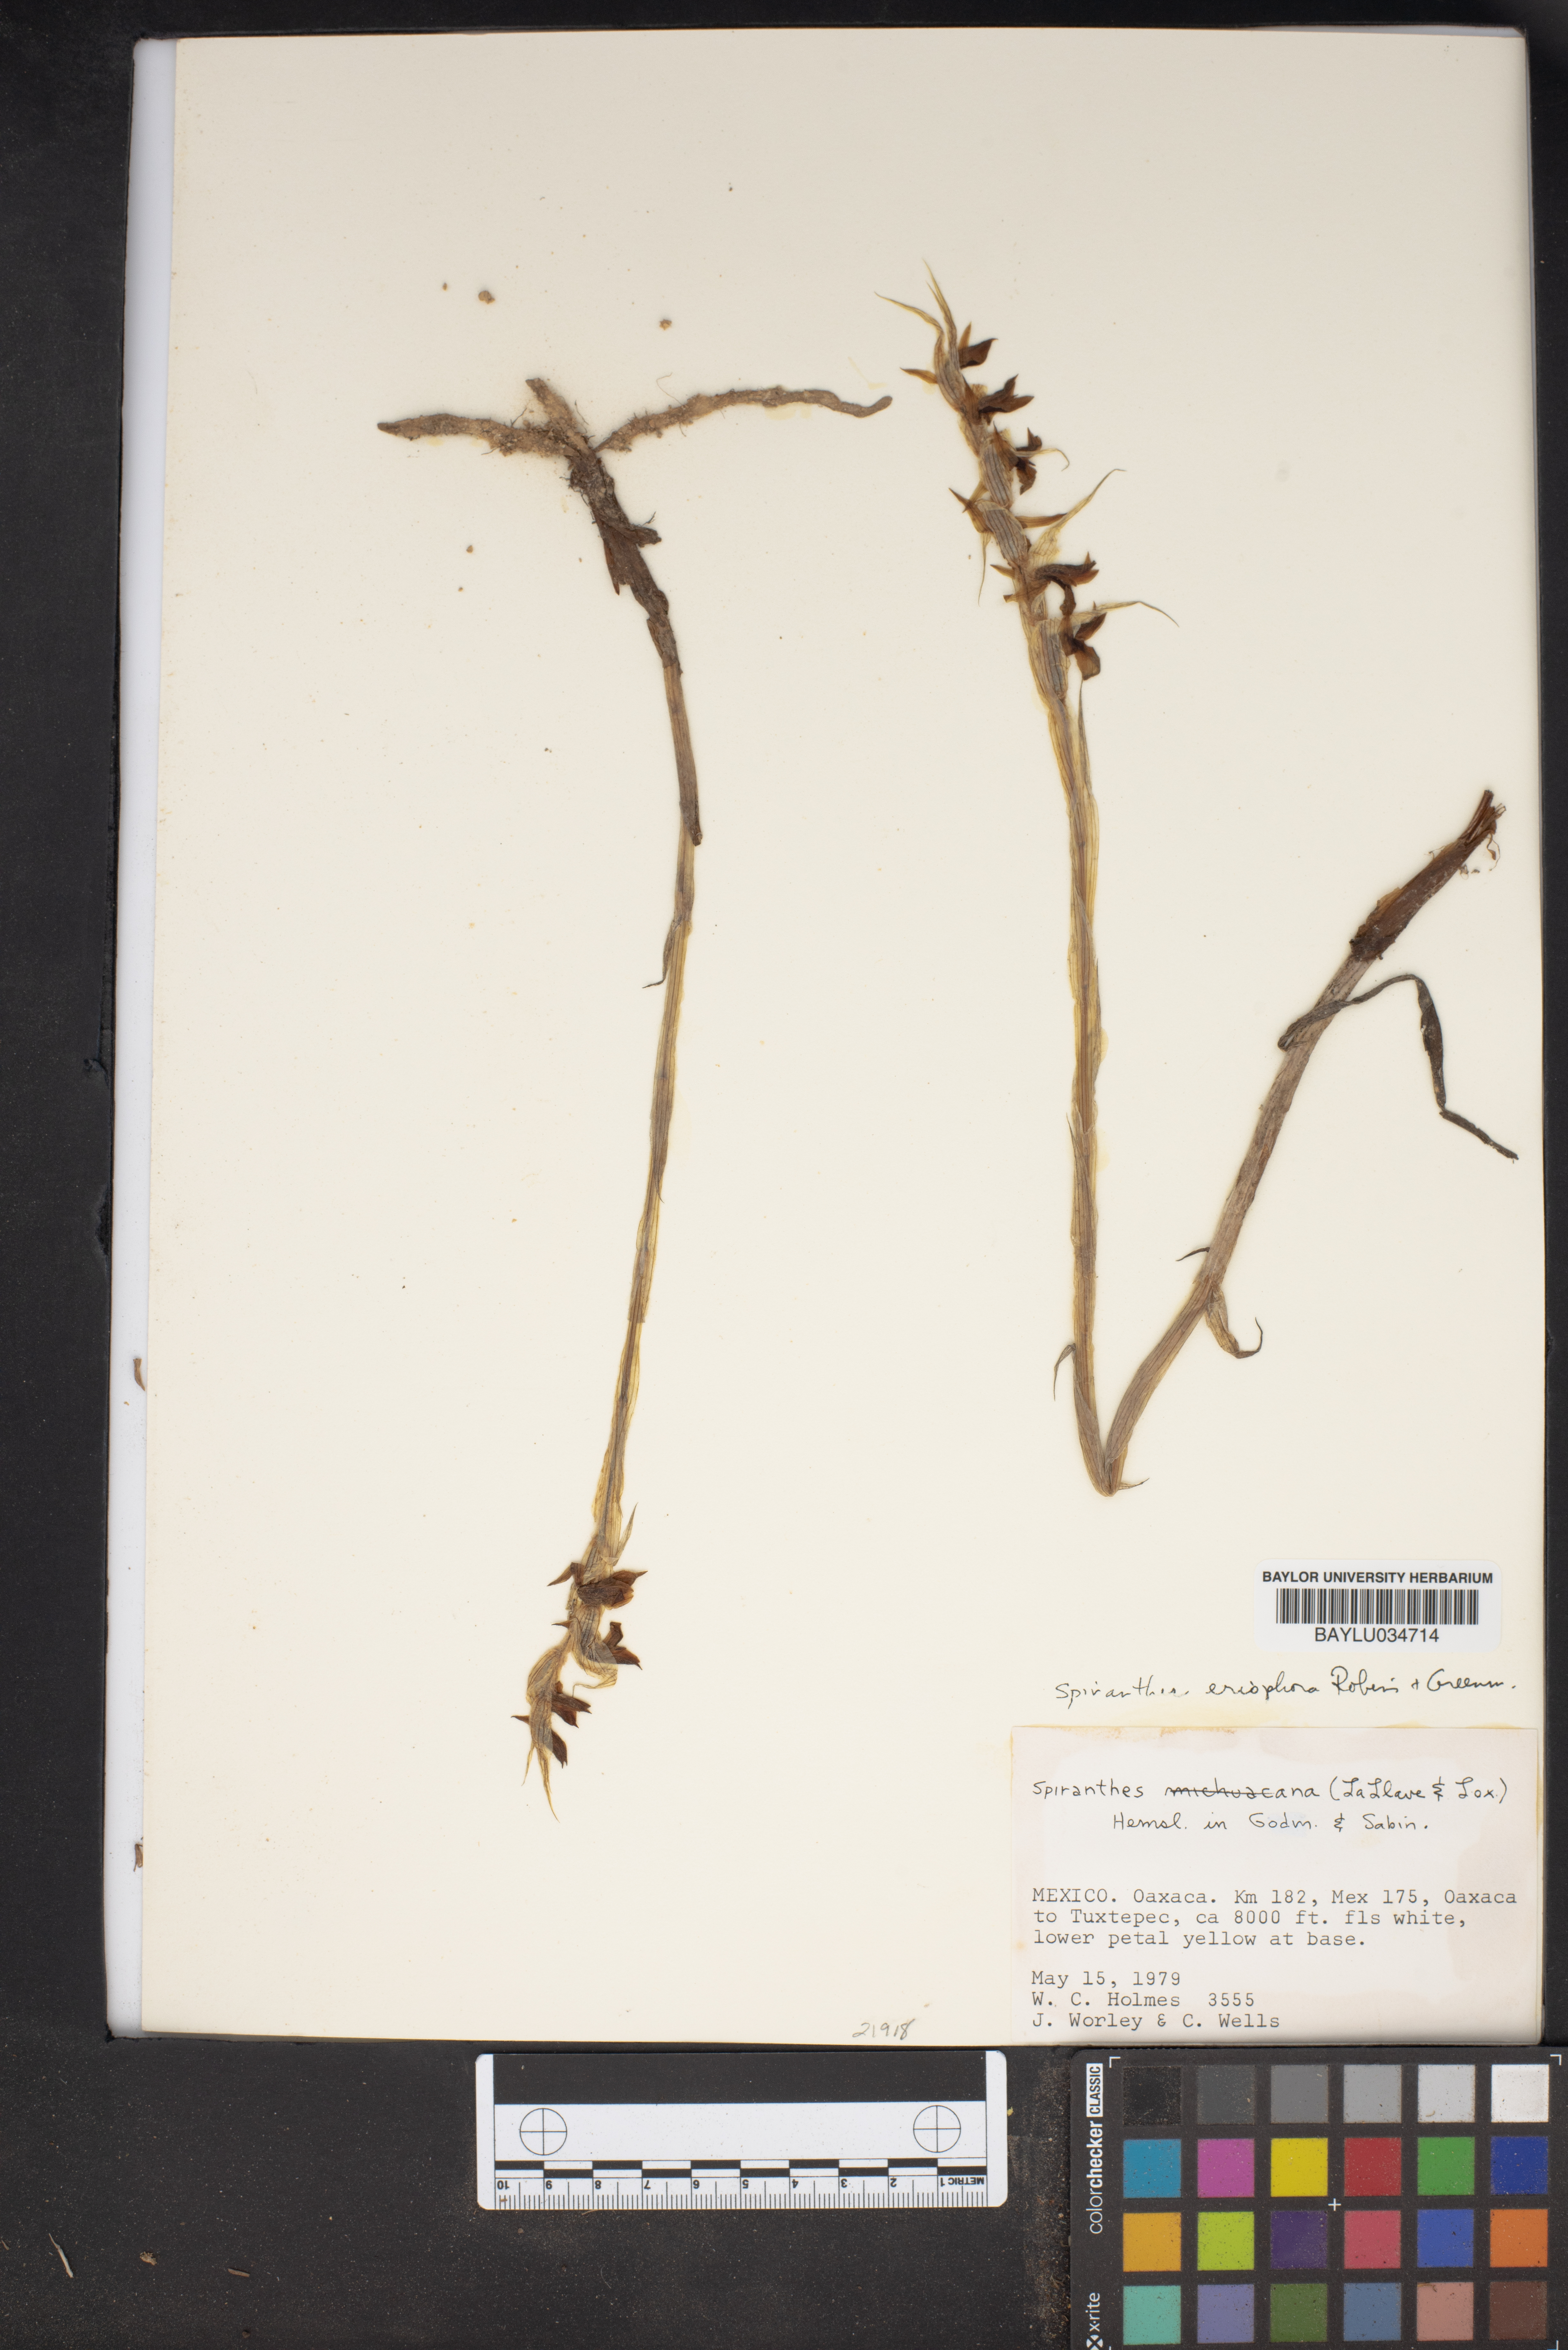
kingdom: Plantae
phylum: Tracheophyta
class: Liliopsida
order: Asparagales
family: Orchidaceae
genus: Spiranthes
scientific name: Spiranthes
